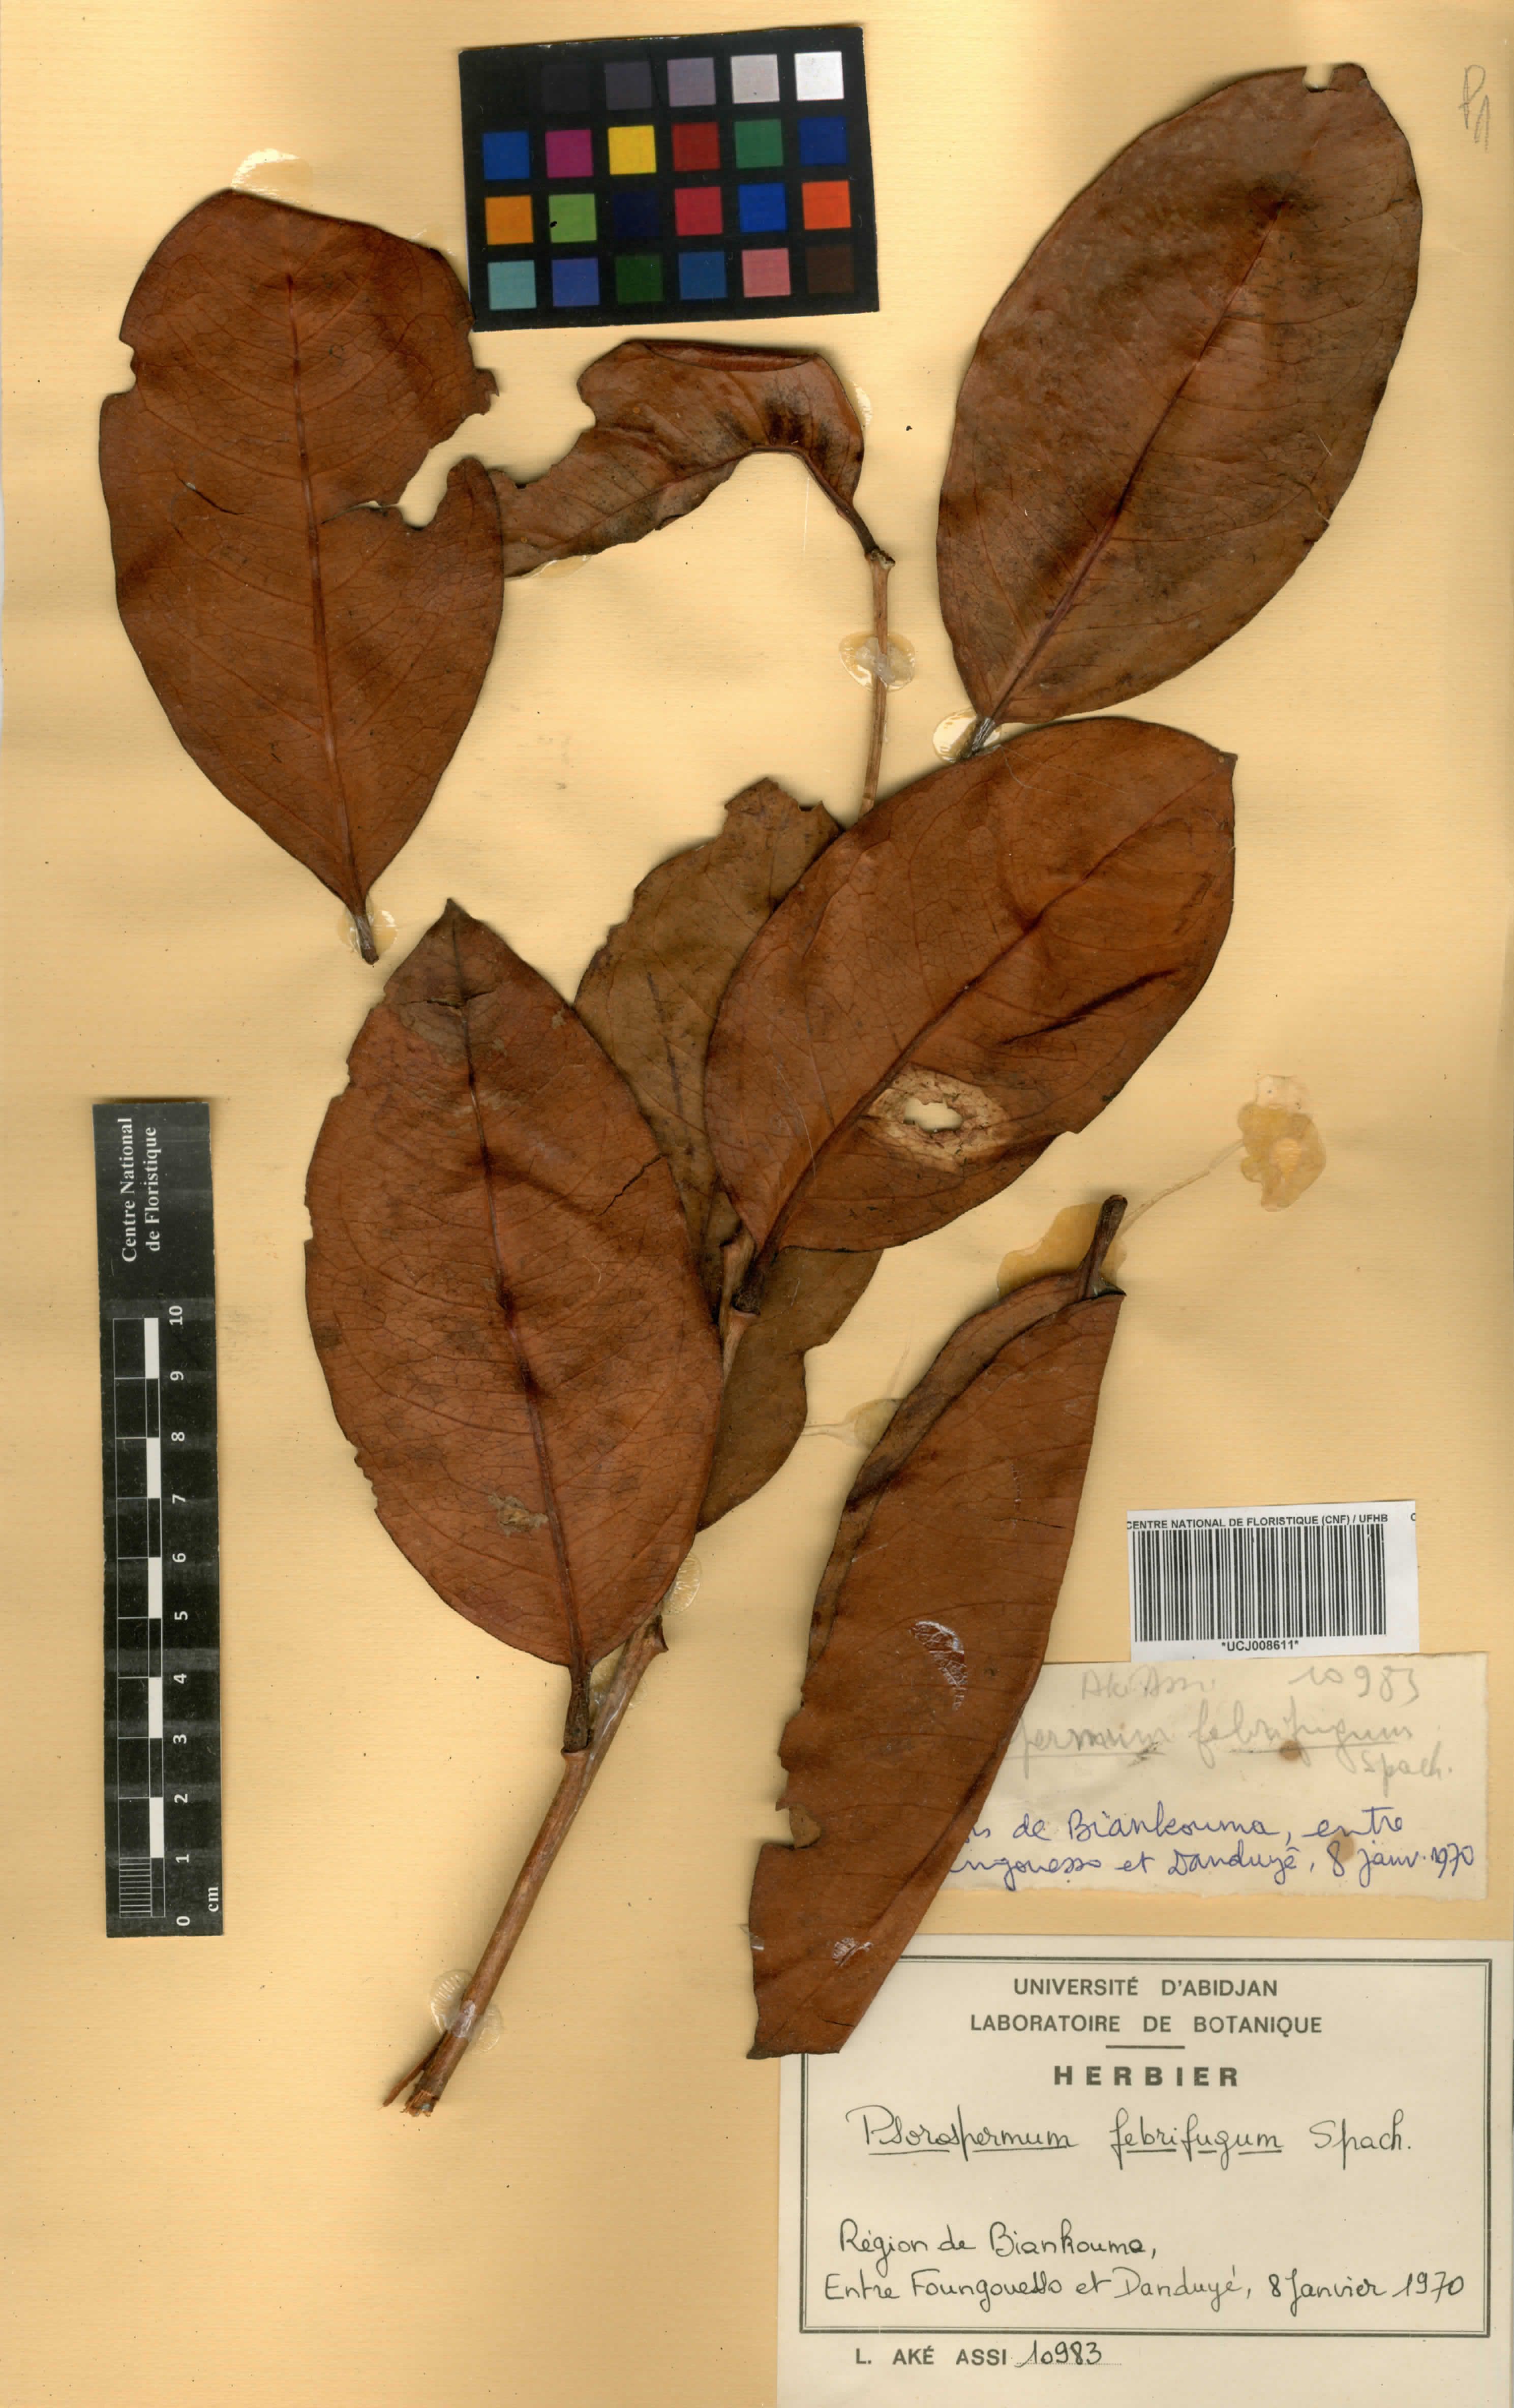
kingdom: Plantae
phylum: Tracheophyta
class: Magnoliopsida
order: Malpighiales
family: Hypericaceae
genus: Psorospermum
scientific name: Psorospermum febrifugum
